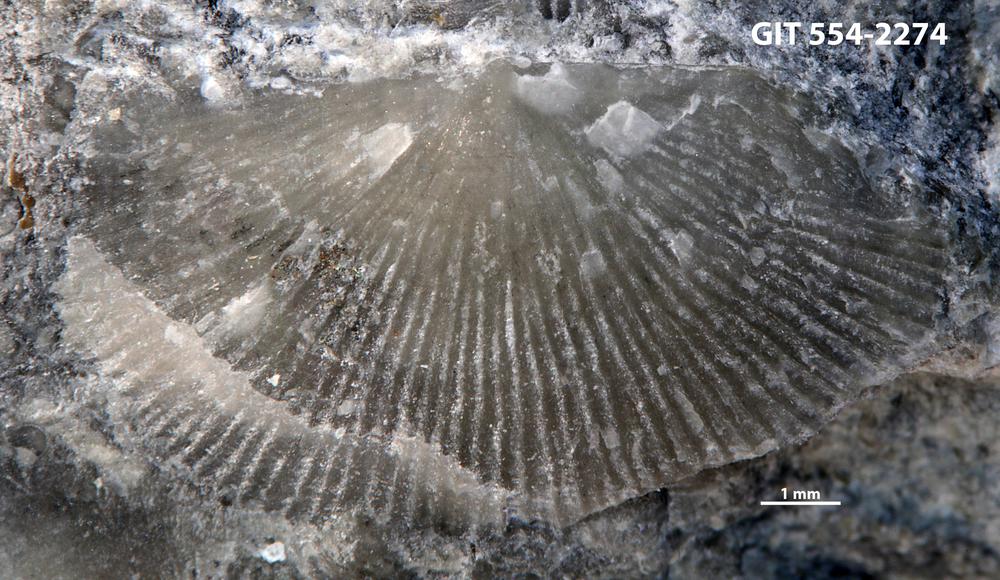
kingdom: Animalia
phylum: Brachiopoda
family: Strophochonetidae
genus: Protochonetes
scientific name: Protochonetes piltenensis
